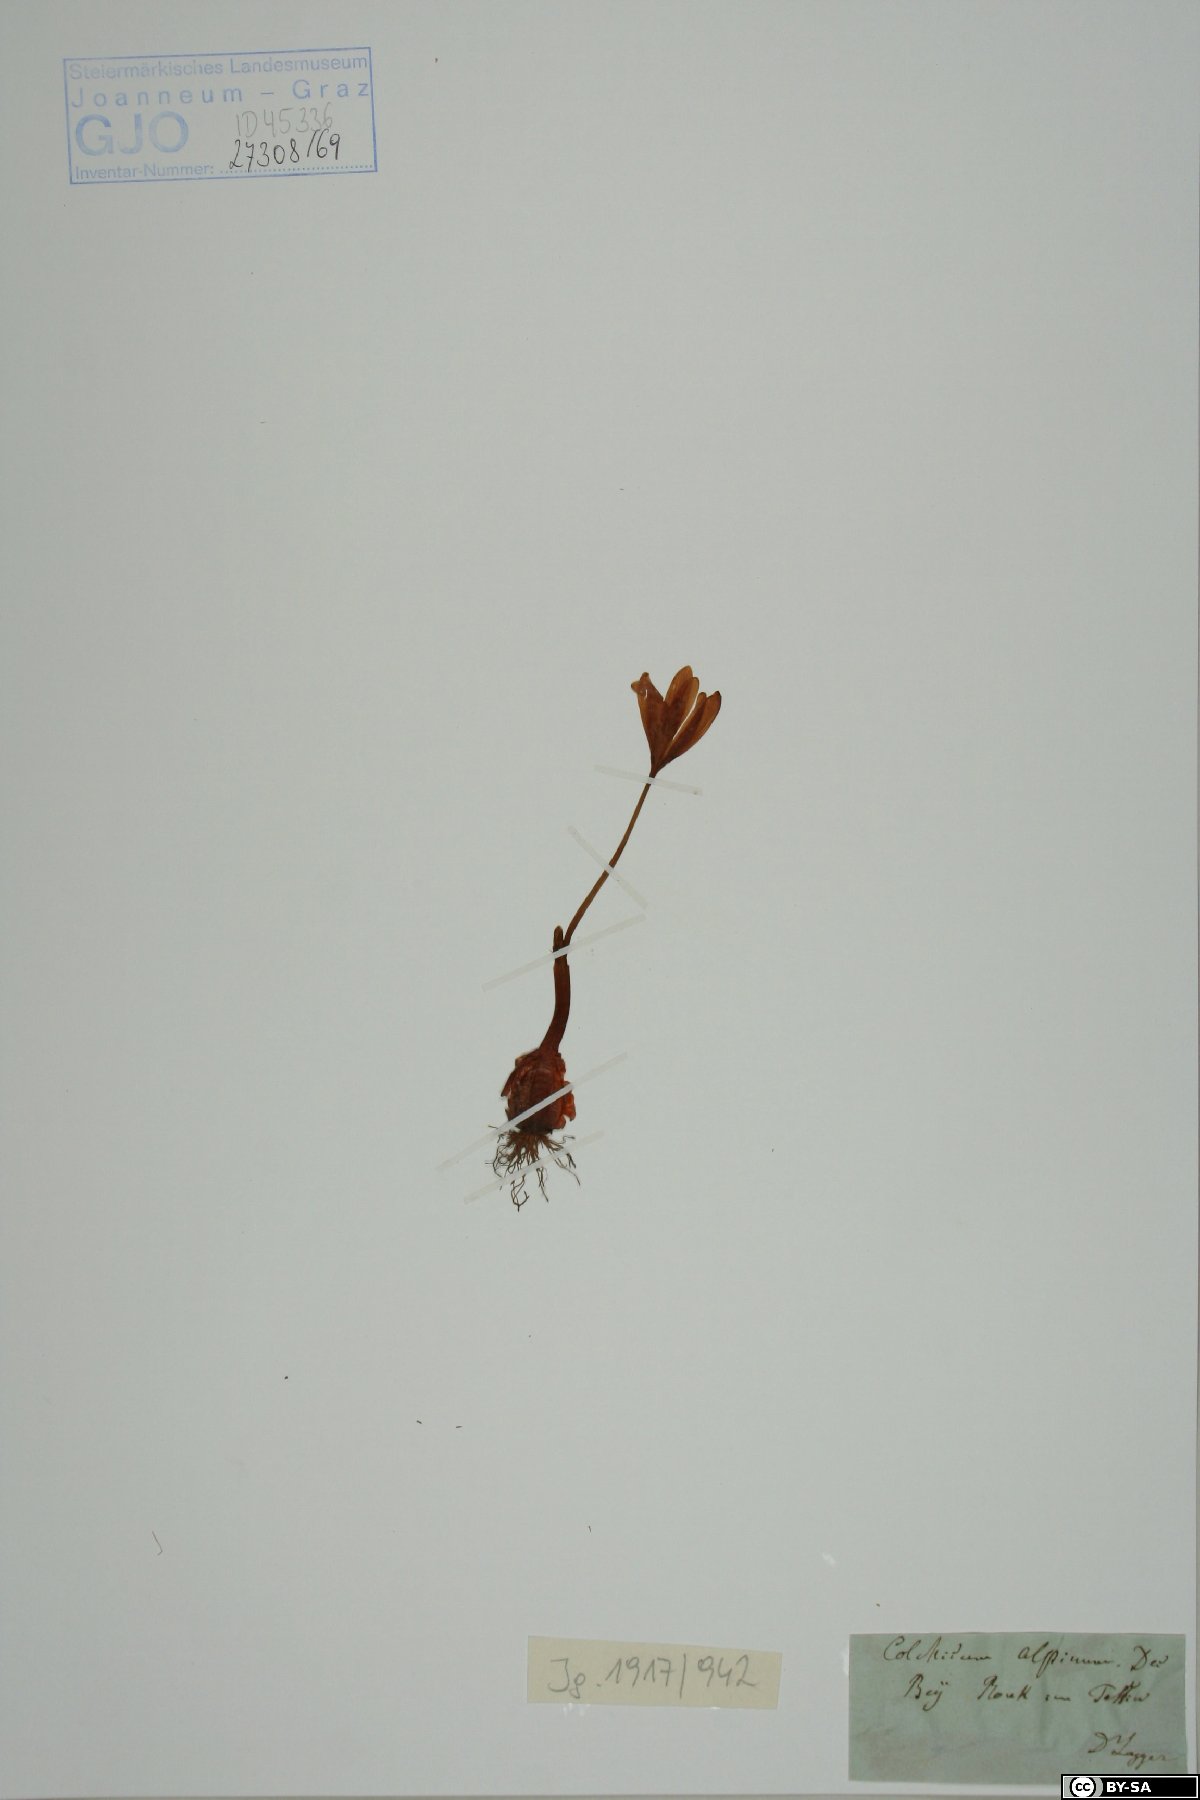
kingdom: Plantae
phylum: Tracheophyta
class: Liliopsida
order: Liliales
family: Colchicaceae
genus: Colchicum
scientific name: Colchicum alpinum
